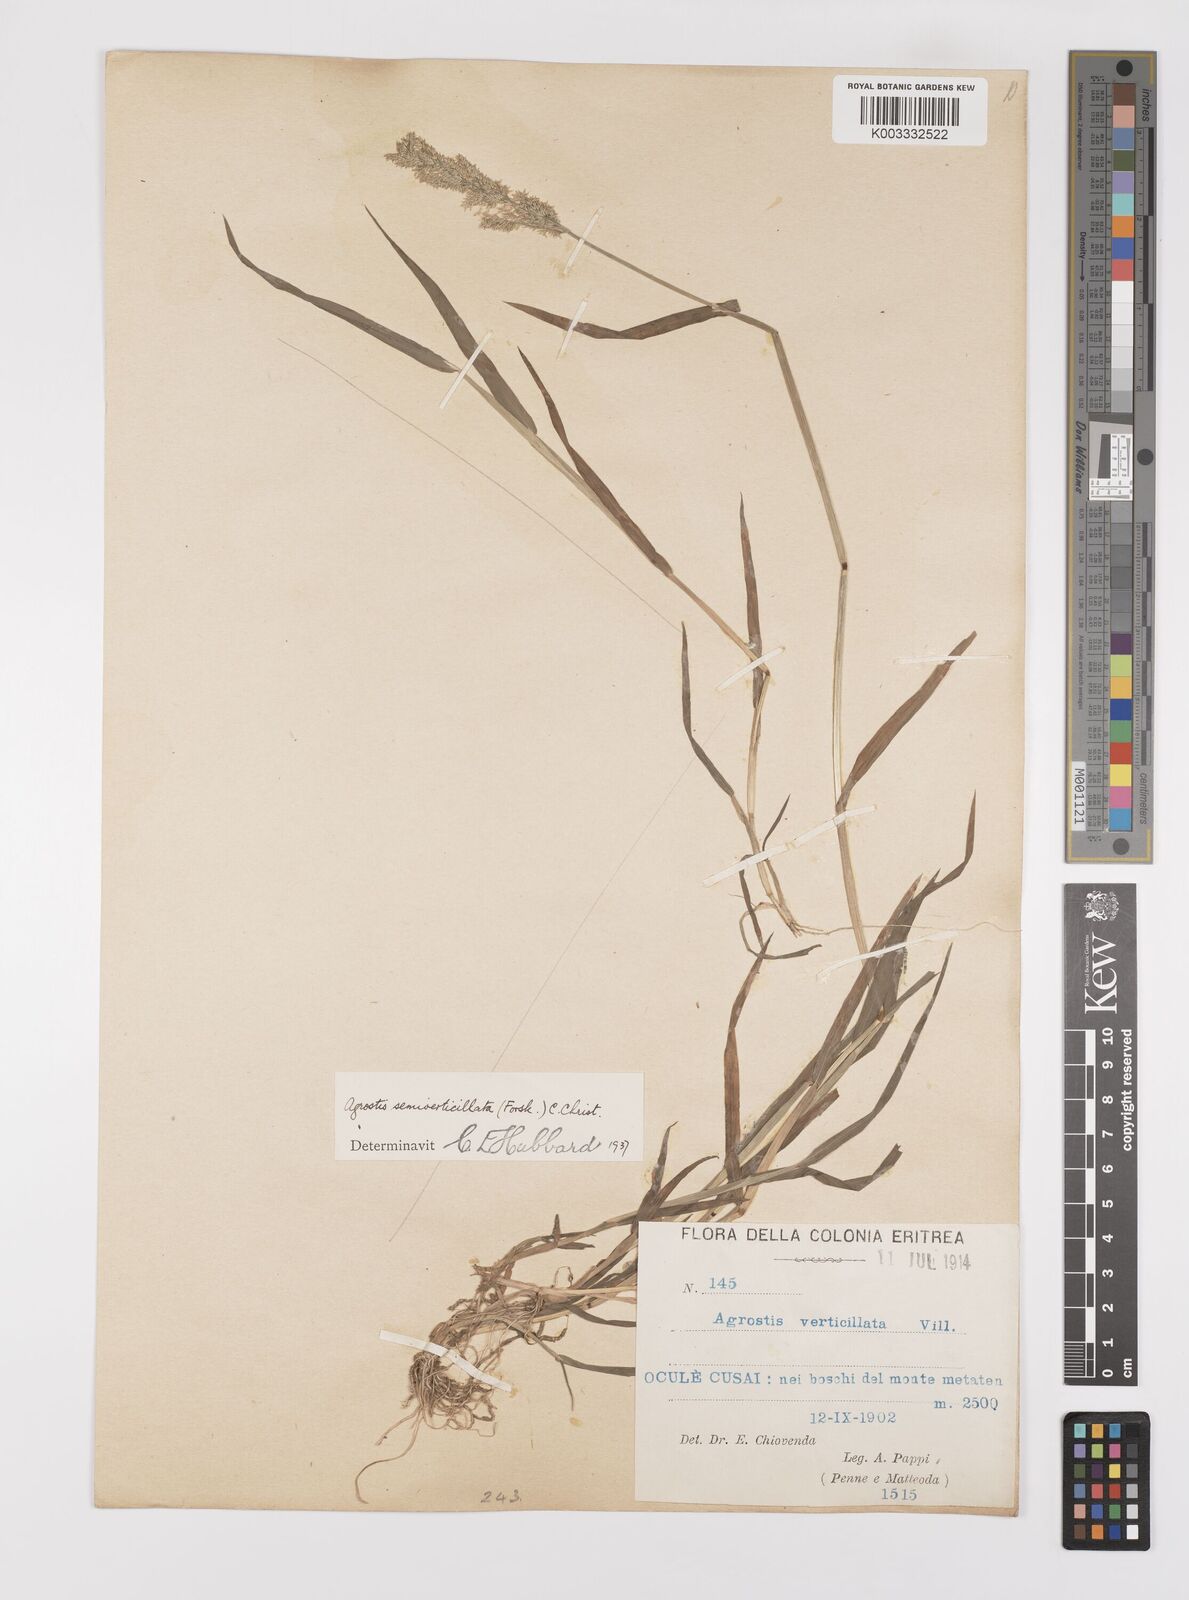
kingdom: Plantae
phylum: Tracheophyta
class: Liliopsida
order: Poales
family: Poaceae
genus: Polypogon
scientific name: Polypogon viridis
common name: Water bent
